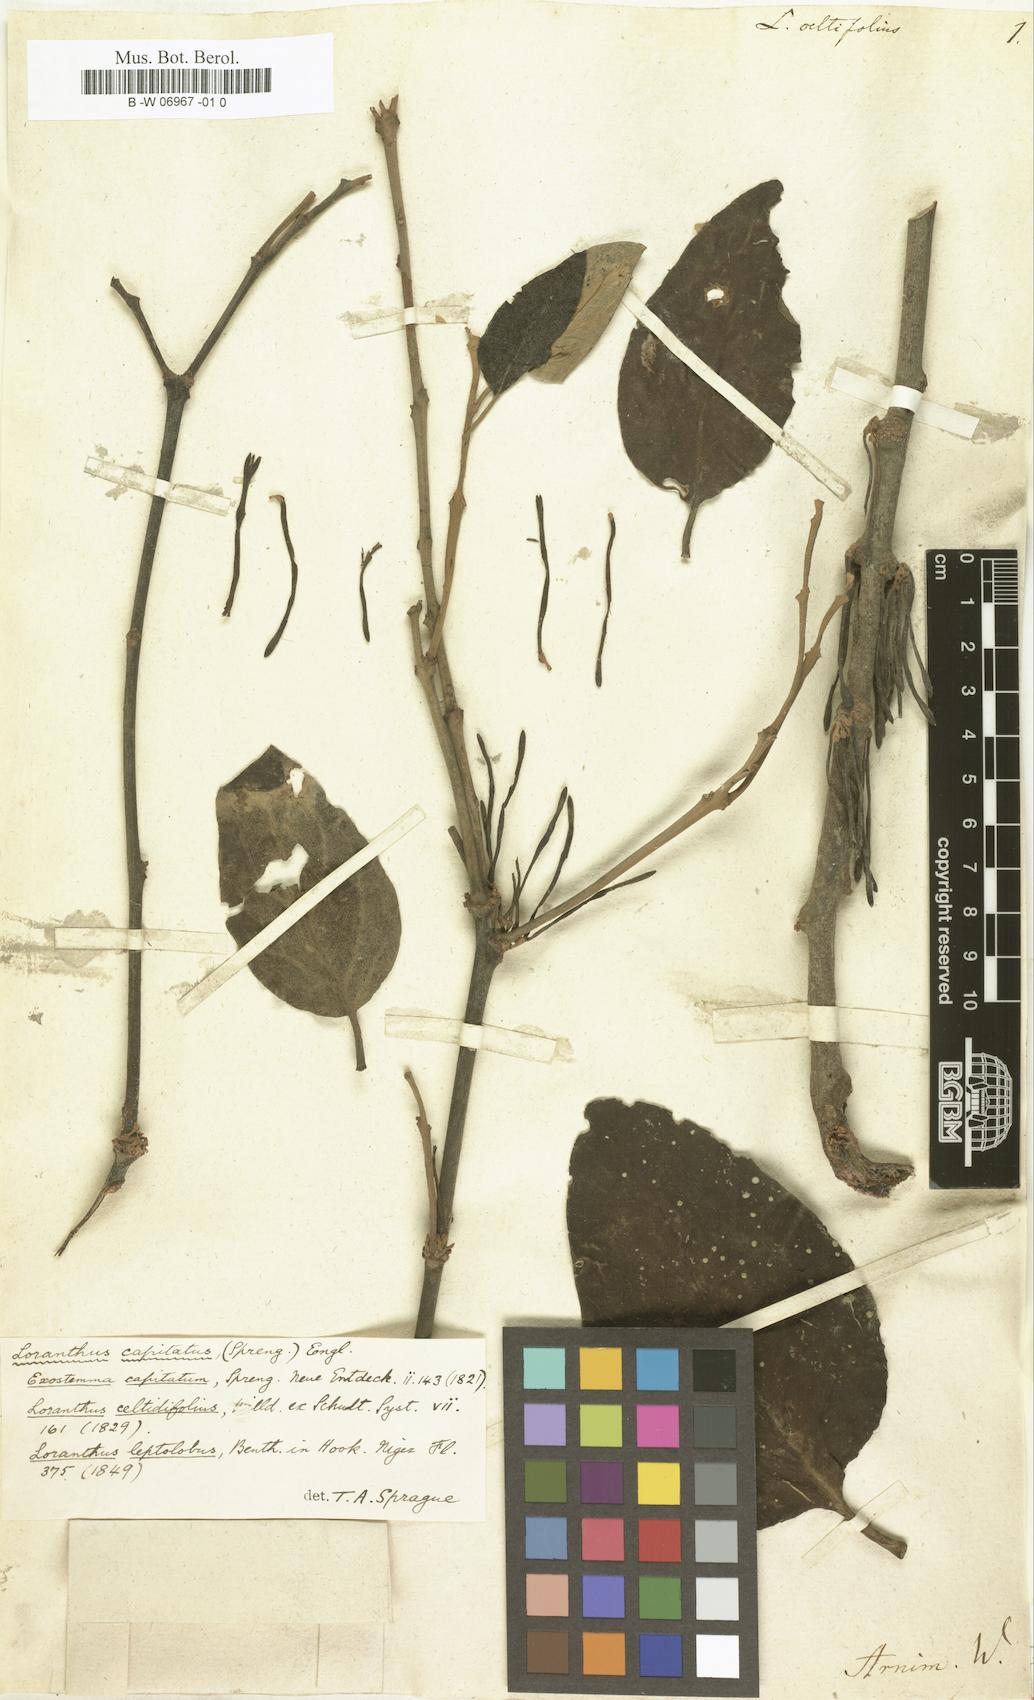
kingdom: Plantae
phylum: Tracheophyta
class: Magnoliopsida
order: Santalales
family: Loranthaceae
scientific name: Loranthaceae
